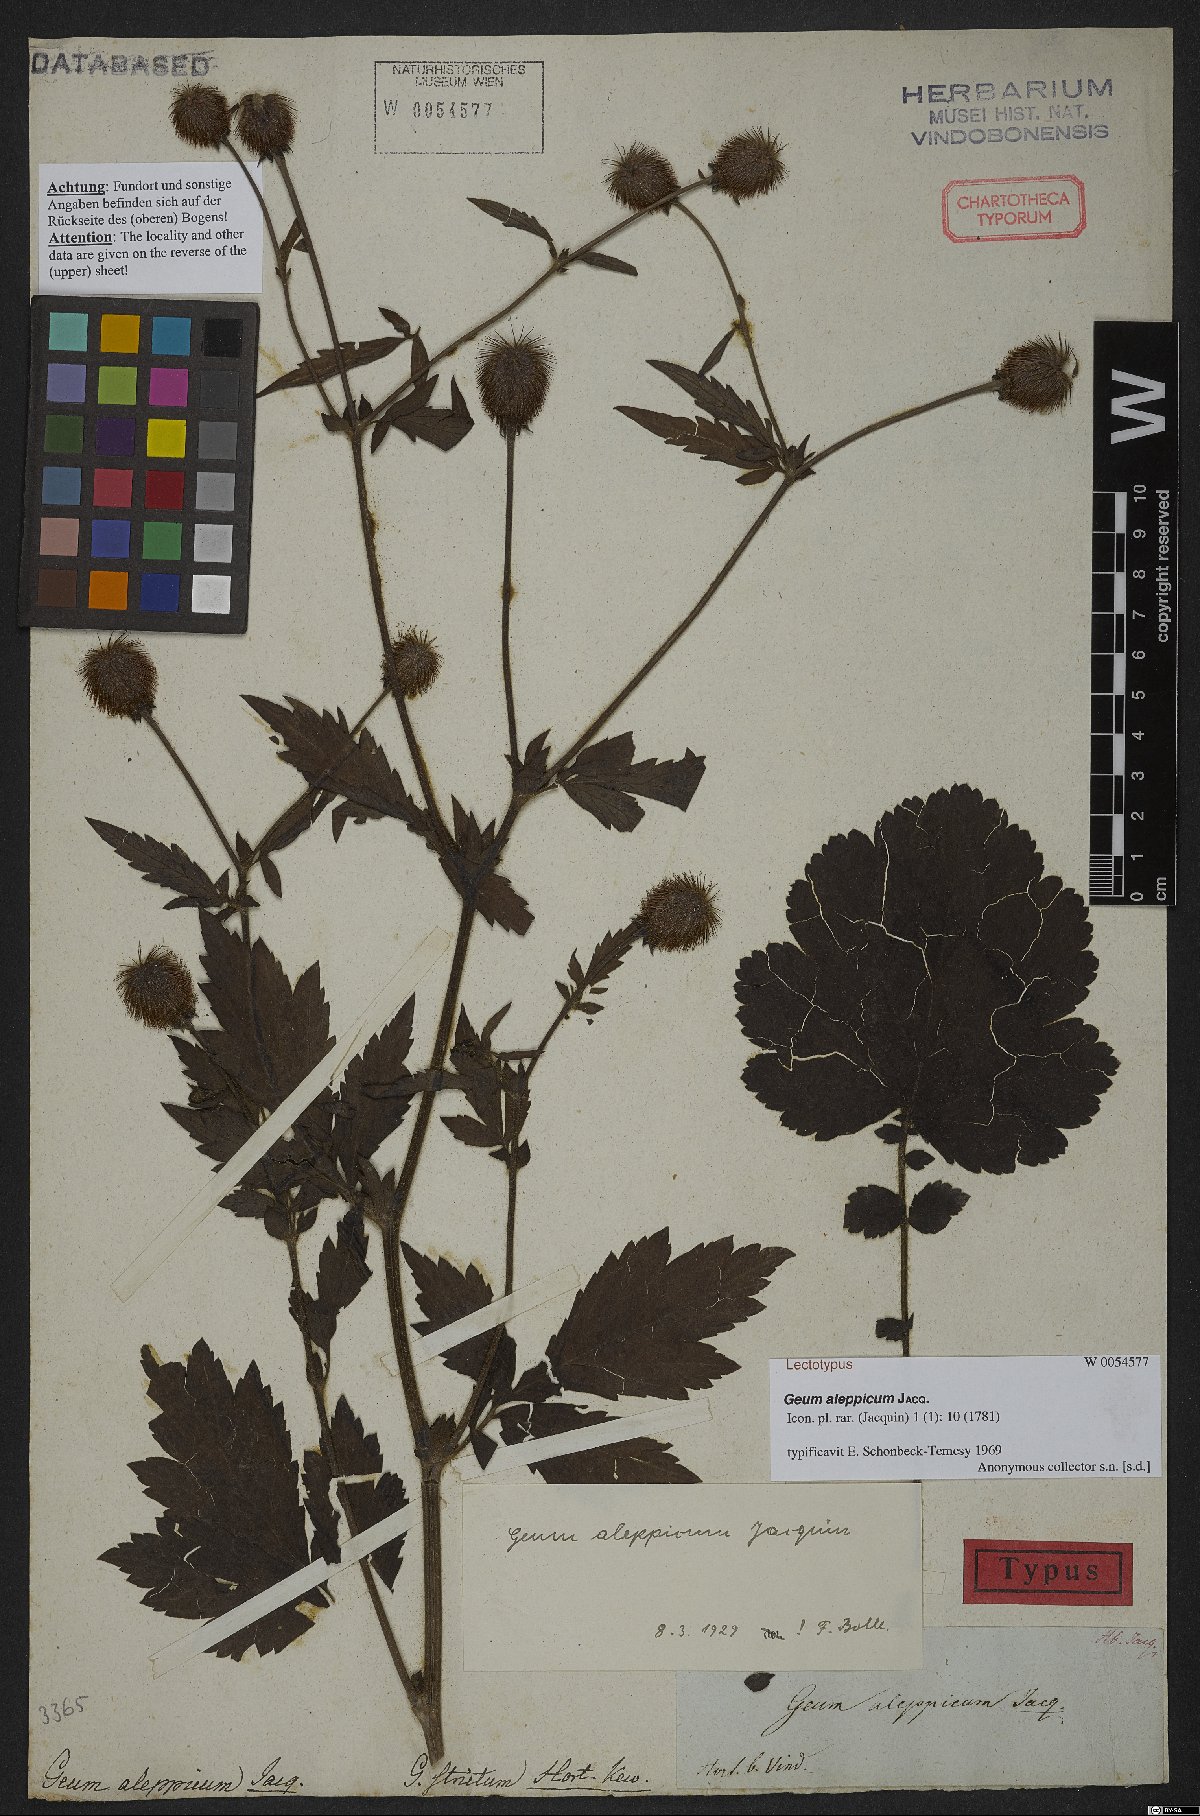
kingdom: Plantae
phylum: Tracheophyta
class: Magnoliopsida
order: Rosales
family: Rosaceae
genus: Geum
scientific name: Geum aleppicum
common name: Yellow avens
